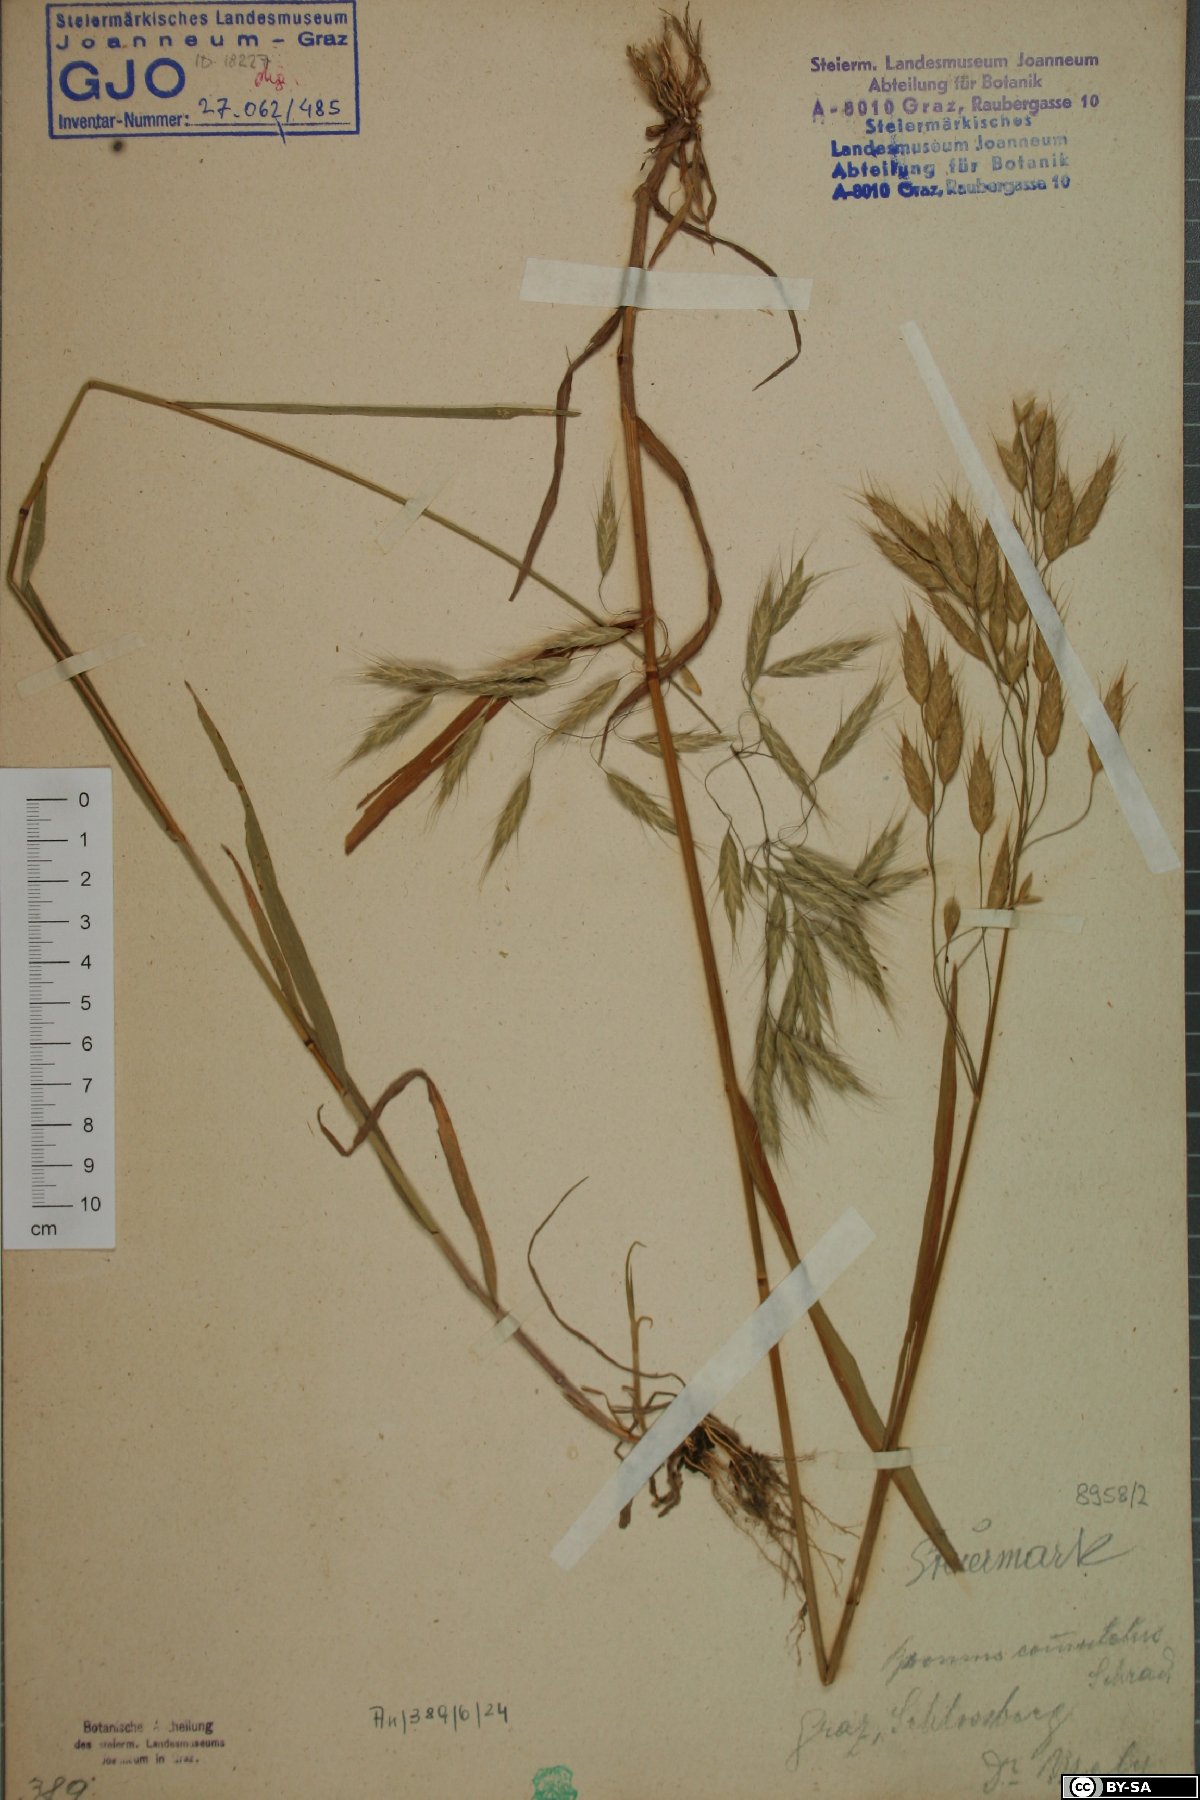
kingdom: Plantae
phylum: Tracheophyta
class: Liliopsida
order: Poales
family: Poaceae
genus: Bromus
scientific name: Bromus commutatus
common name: Meadow brome
